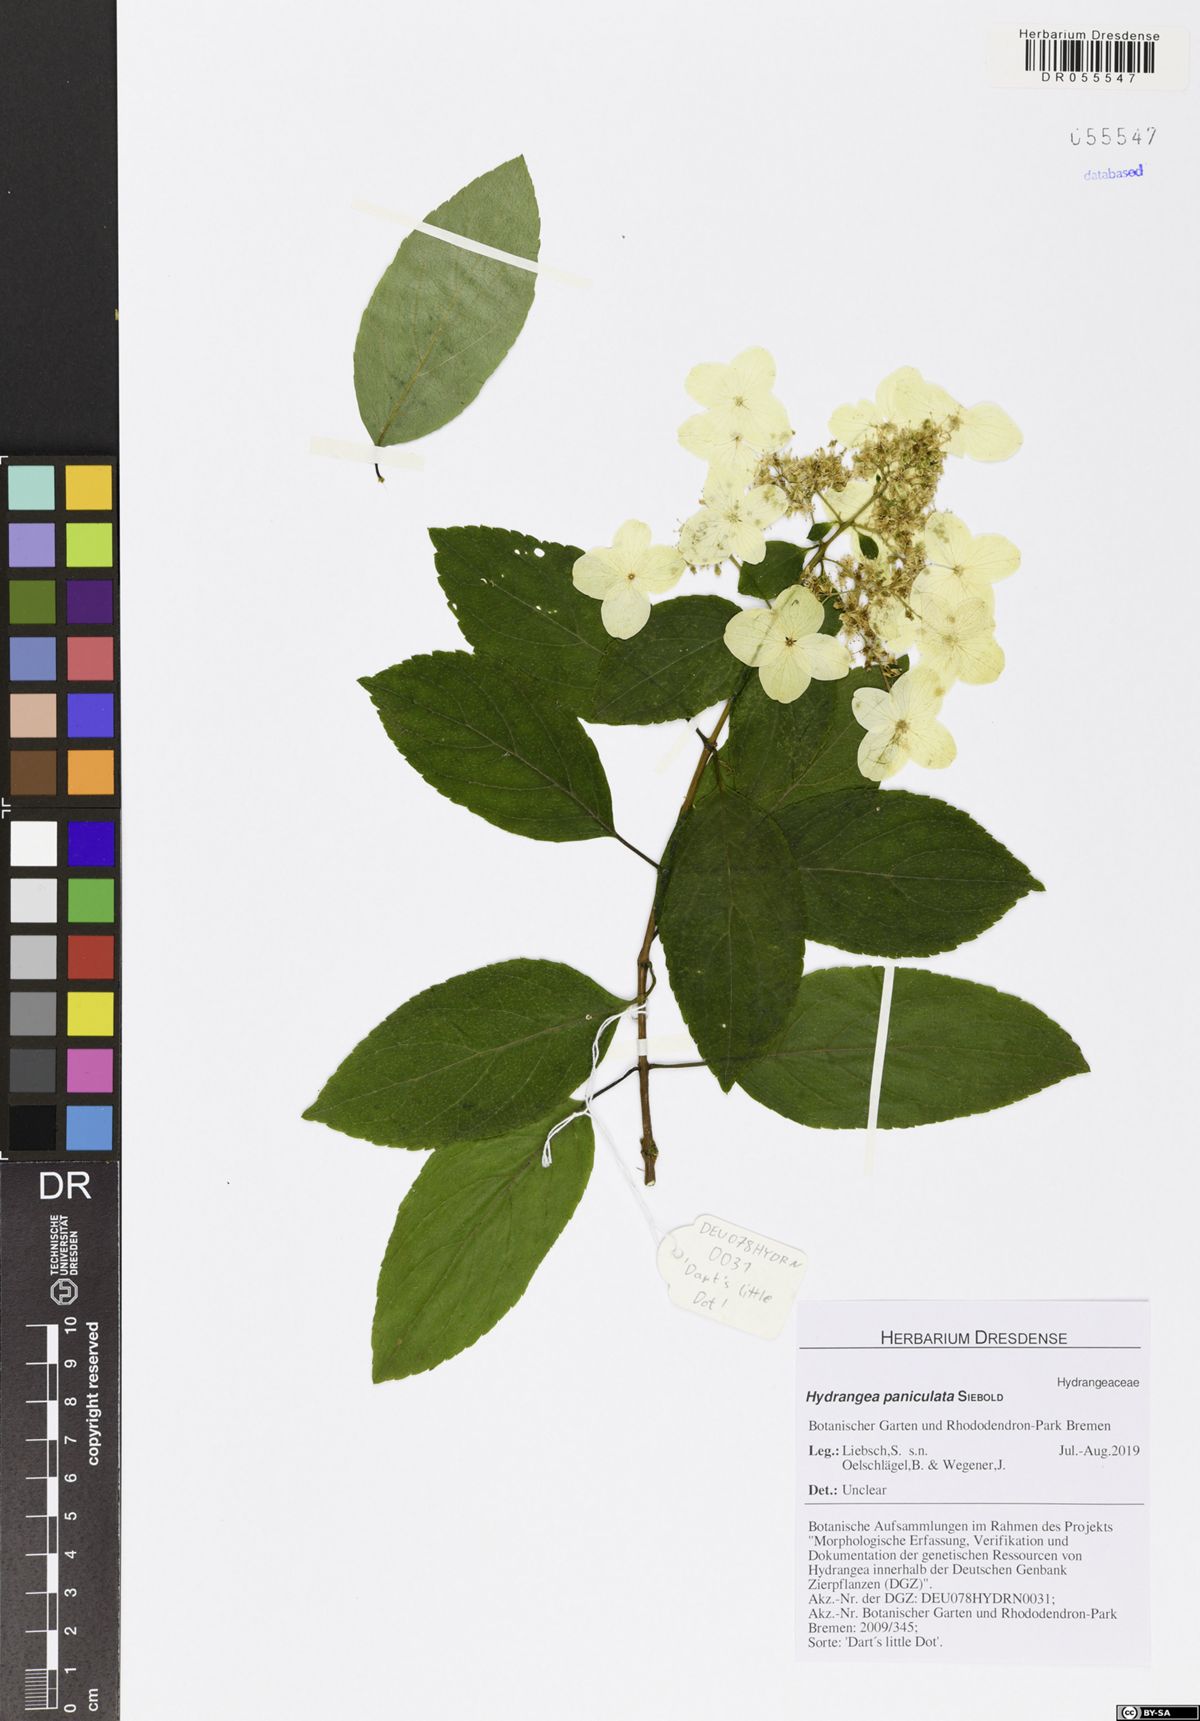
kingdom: Plantae
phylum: Tracheophyta
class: Magnoliopsida
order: Cornales
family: Hydrangeaceae
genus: Hydrangea
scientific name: Hydrangea paniculata
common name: Panicled hydrangea
